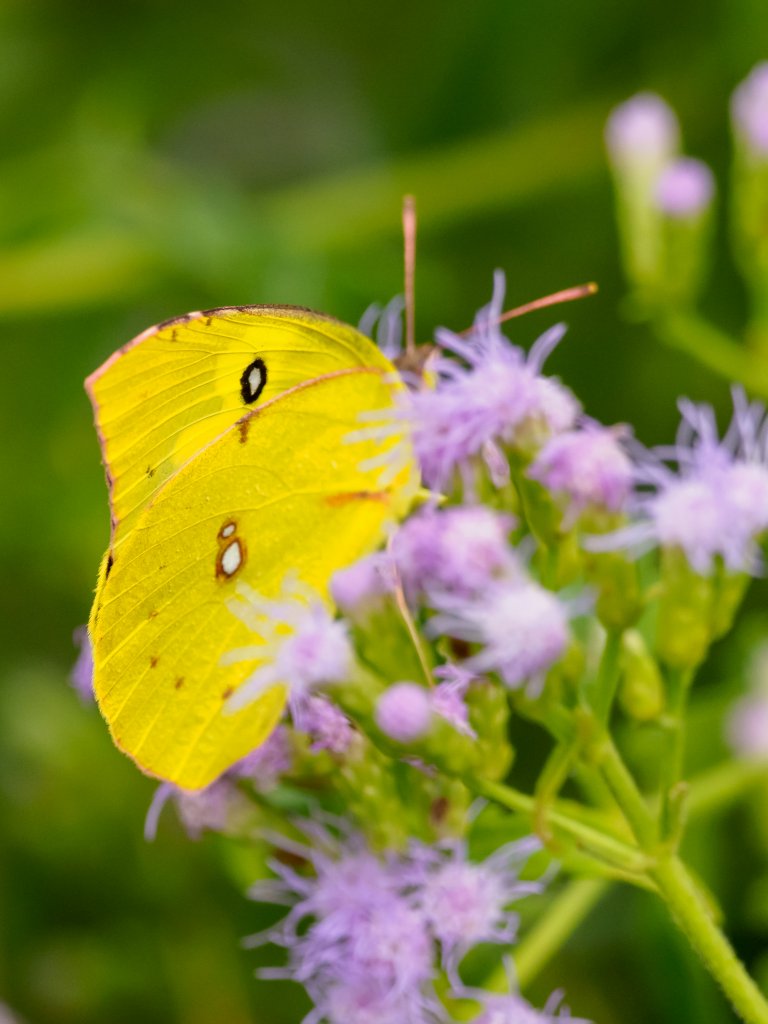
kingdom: Animalia
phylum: Arthropoda
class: Insecta
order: Lepidoptera
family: Pieridae
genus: Zerene
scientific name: Zerene cesonia
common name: Southern Dogface
